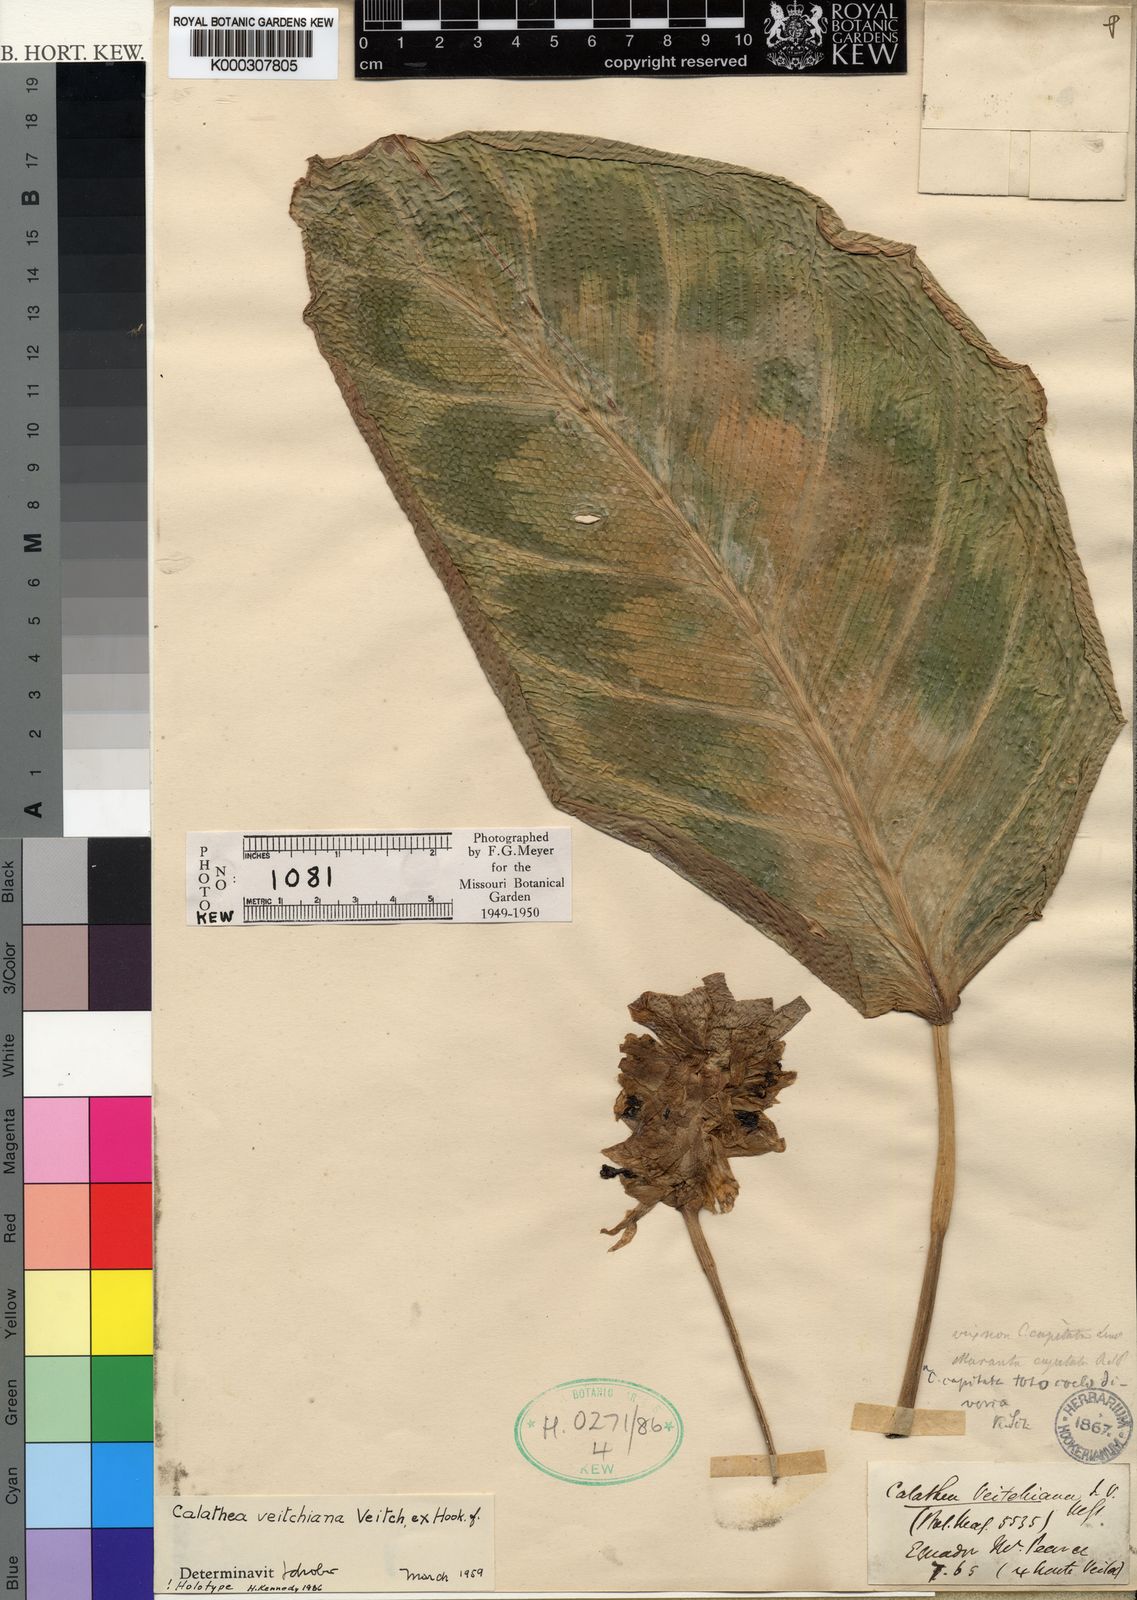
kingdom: Plantae
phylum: Tracheophyta
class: Liliopsida
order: Zingiberales
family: Marantaceae
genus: Goeppertia
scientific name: Goeppertia veitchiana
